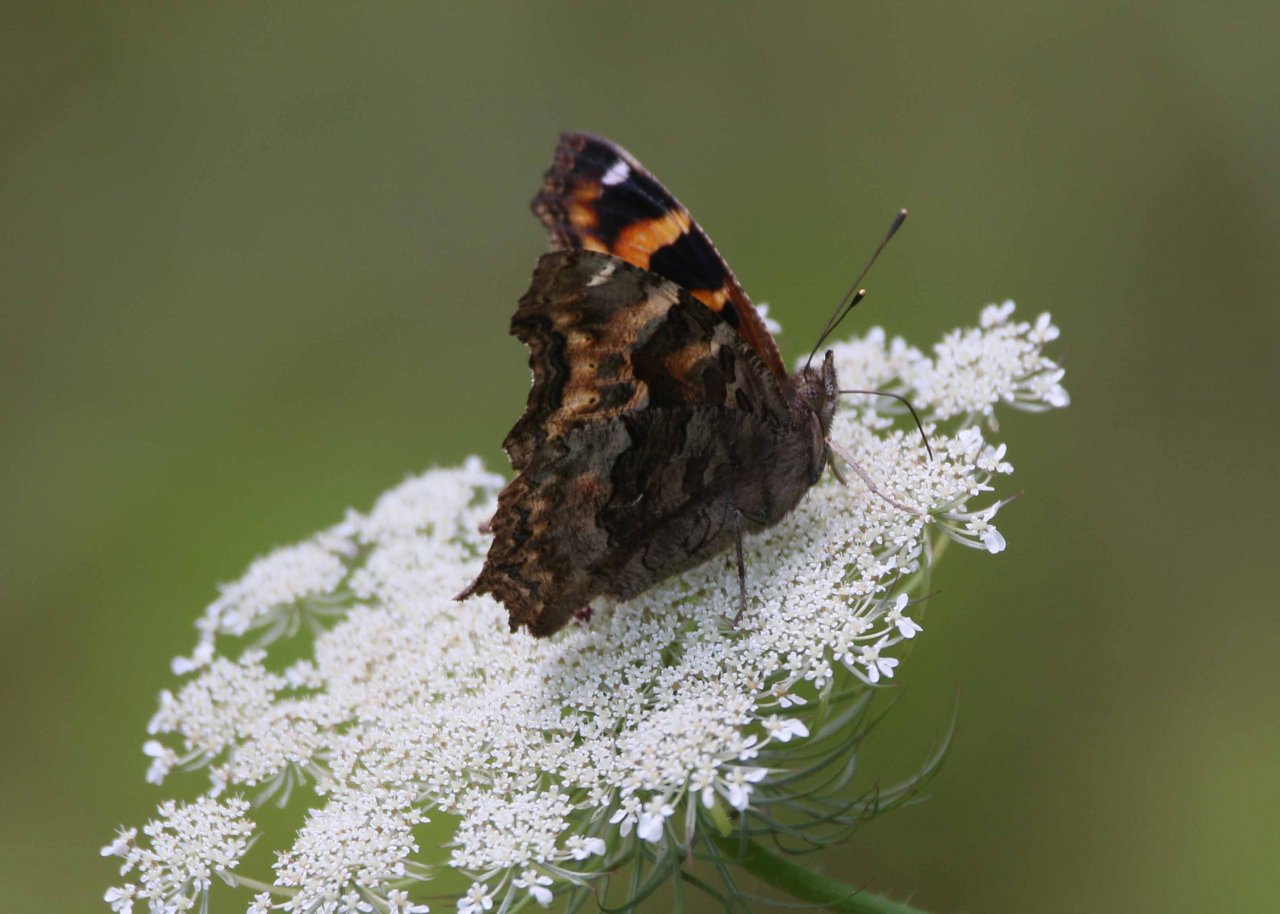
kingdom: Animalia
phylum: Arthropoda
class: Insecta
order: Lepidoptera
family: Nymphalidae
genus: Polygonia
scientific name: Polygonia vaualbum
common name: Compton Tortoiseshell
